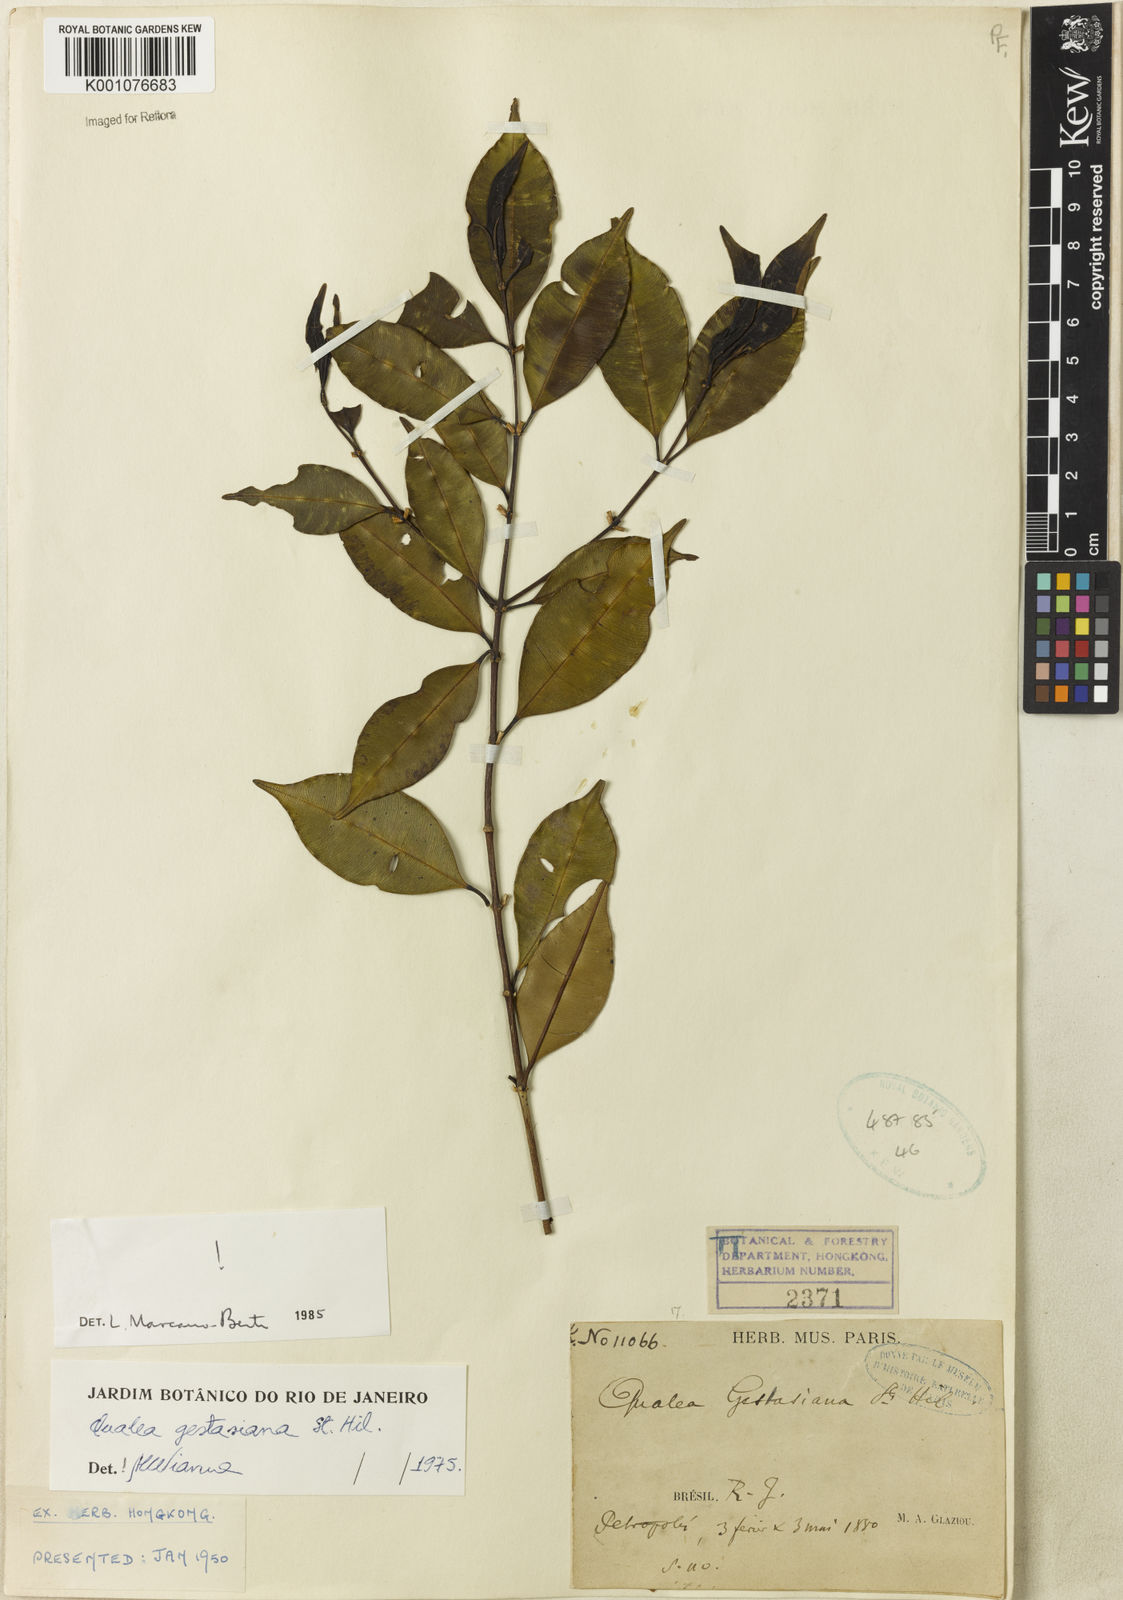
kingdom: Plantae
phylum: Tracheophyta
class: Magnoliopsida
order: Myrtales
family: Vochysiaceae
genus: Qualea
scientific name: Qualea gestasiana
